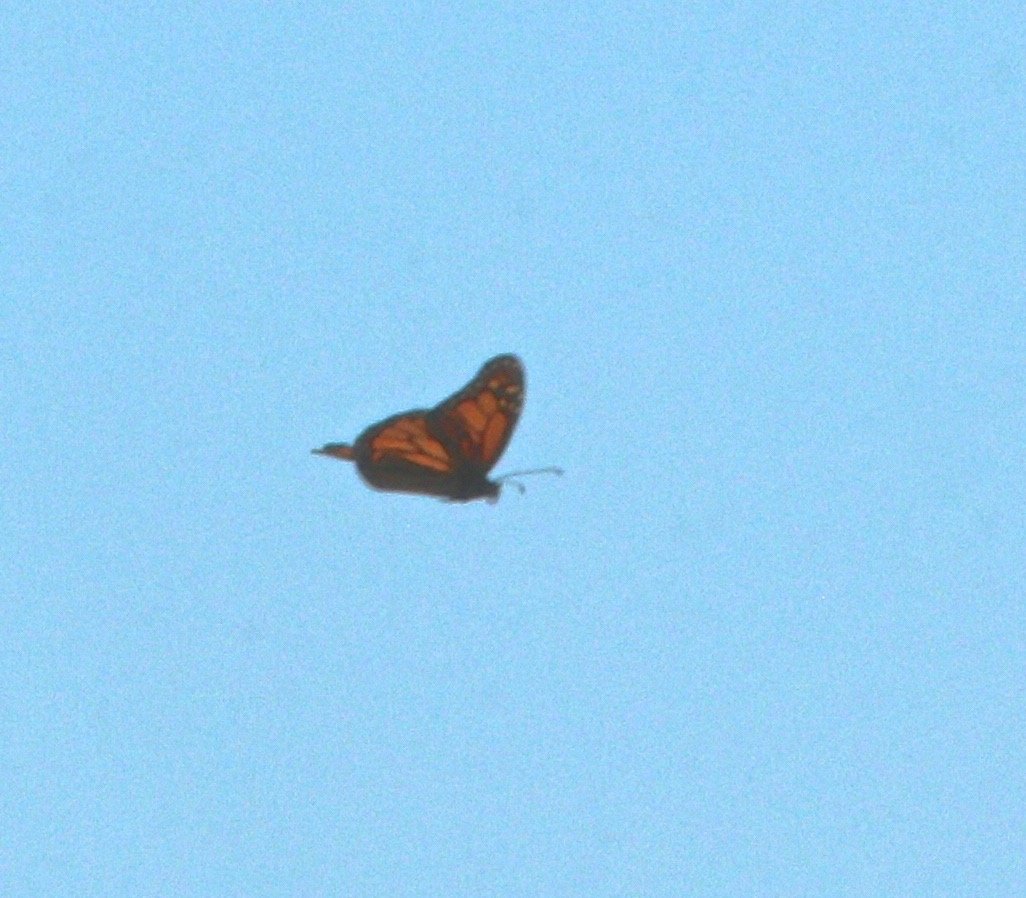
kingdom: Animalia
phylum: Arthropoda
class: Insecta
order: Lepidoptera
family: Nymphalidae
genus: Danaus
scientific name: Danaus plexippus
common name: Monarch
